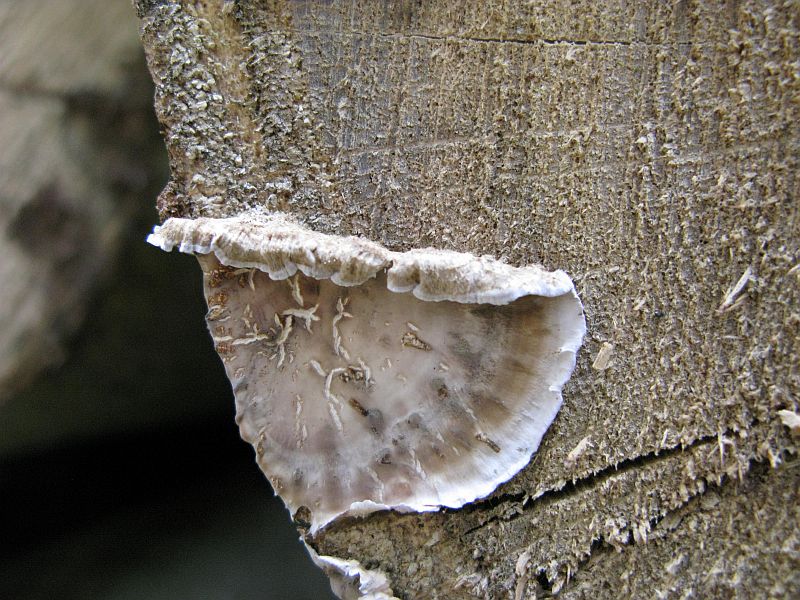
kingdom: Fungi
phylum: Basidiomycota
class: Agaricomycetes
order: Russulales
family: Stereaceae
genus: Stereum
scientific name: Stereum gausapatum
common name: tynd lædersvamp
